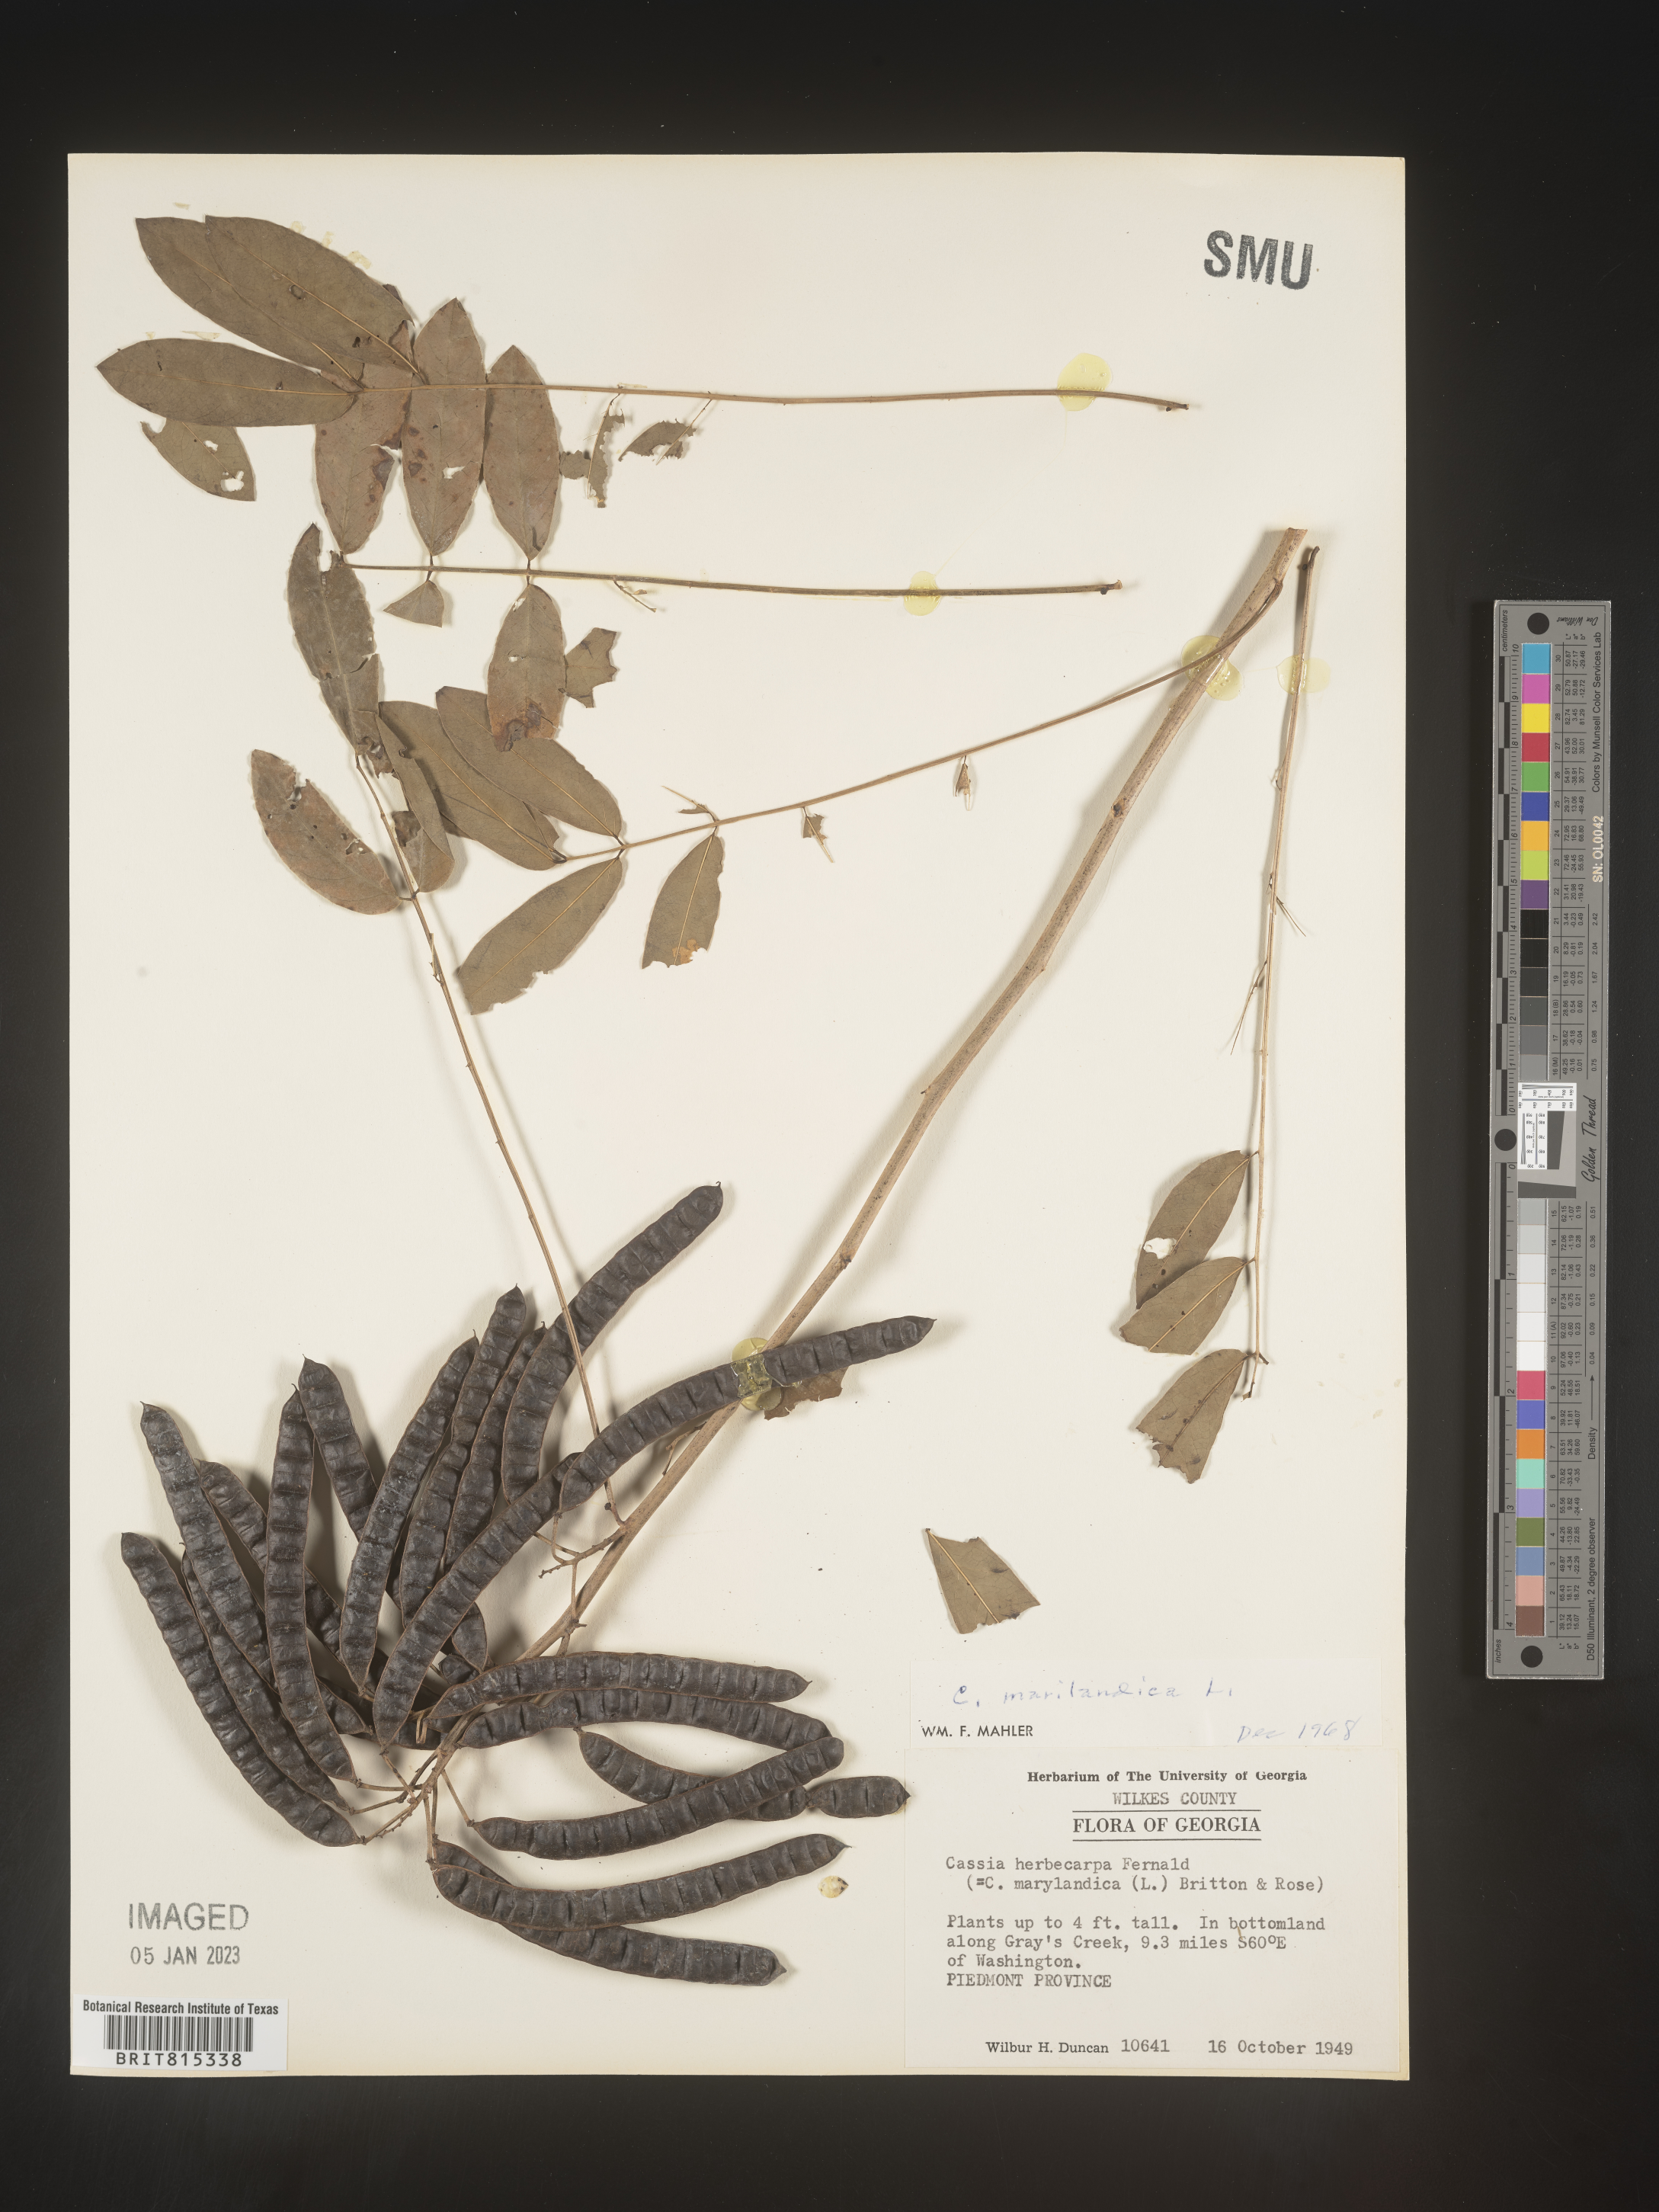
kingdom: Plantae
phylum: Tracheophyta
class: Magnoliopsida
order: Fabales
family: Fabaceae
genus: Senna
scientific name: Senna marilandica
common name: American senna
